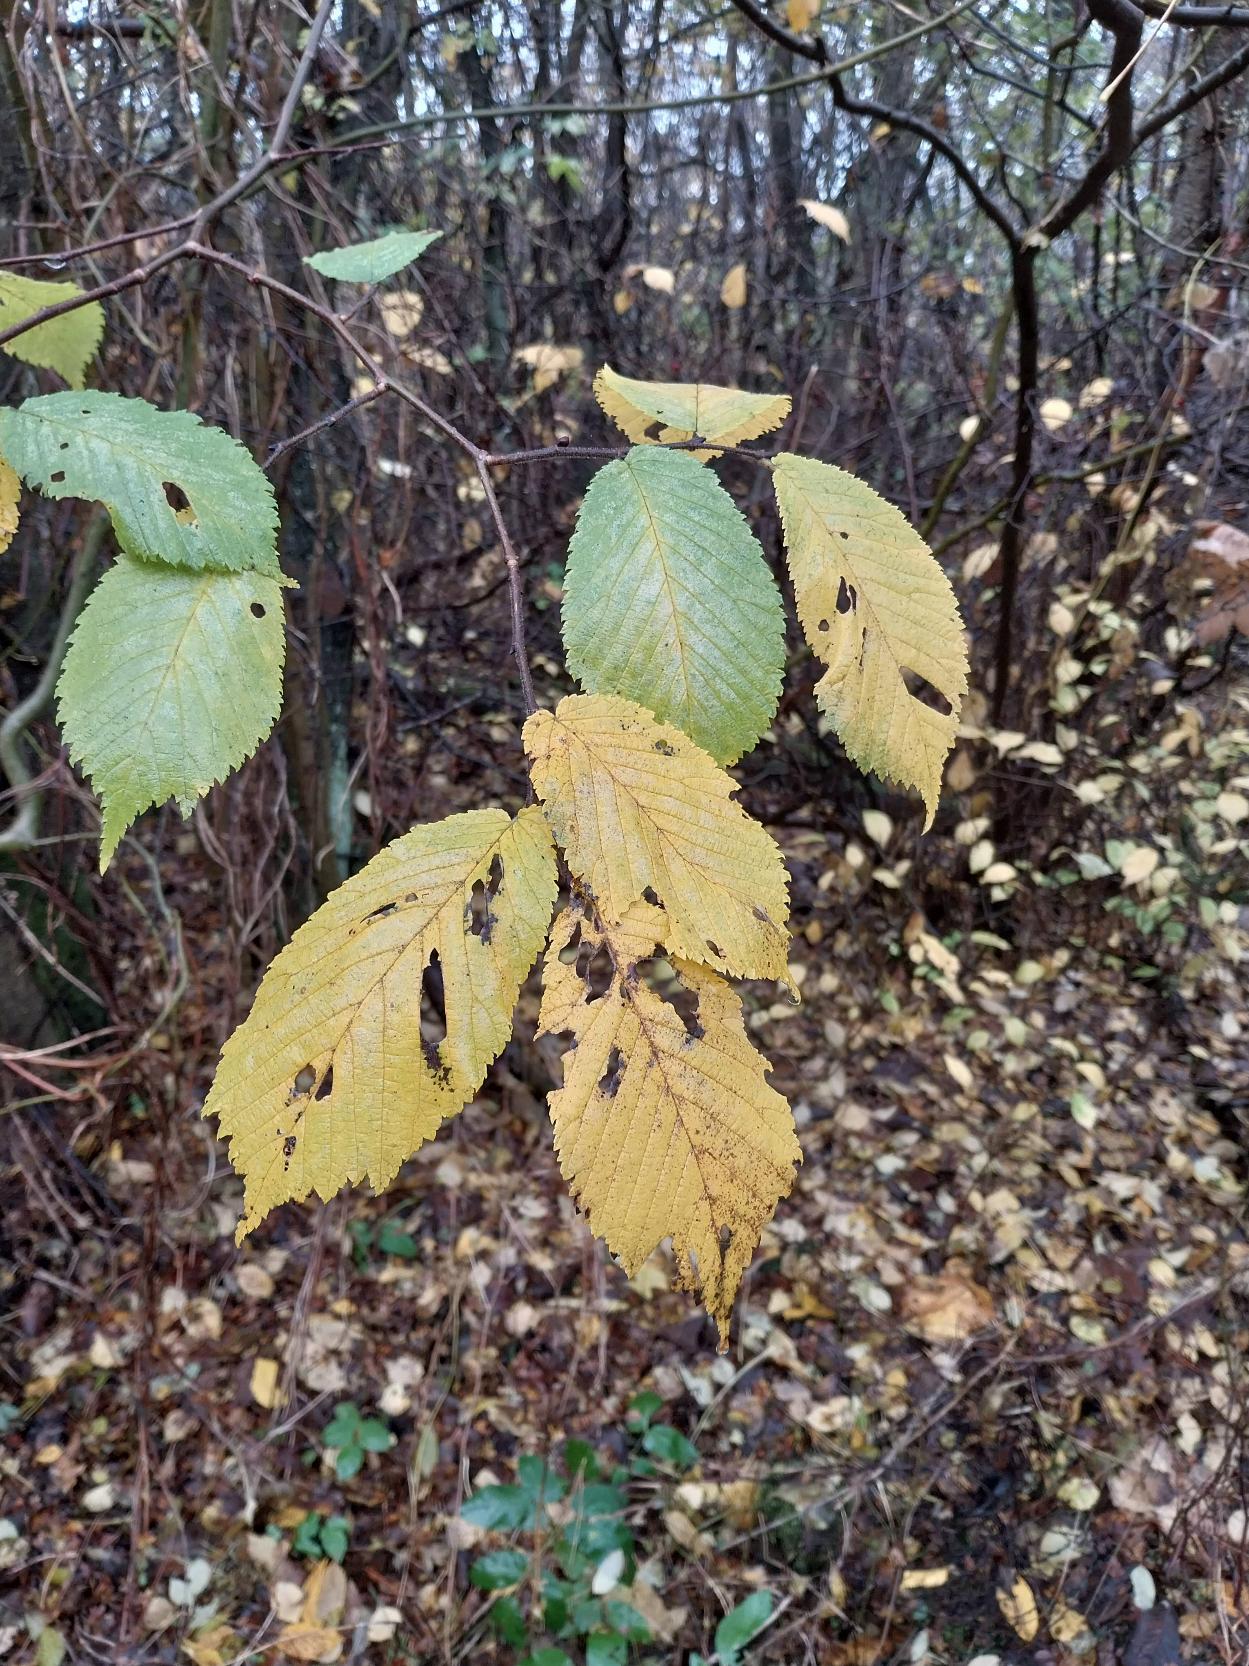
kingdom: Plantae
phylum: Tracheophyta
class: Magnoliopsida
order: Rosales
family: Ulmaceae
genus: Ulmus
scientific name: Ulmus glabra
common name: Skov-elm/storbladet elm
